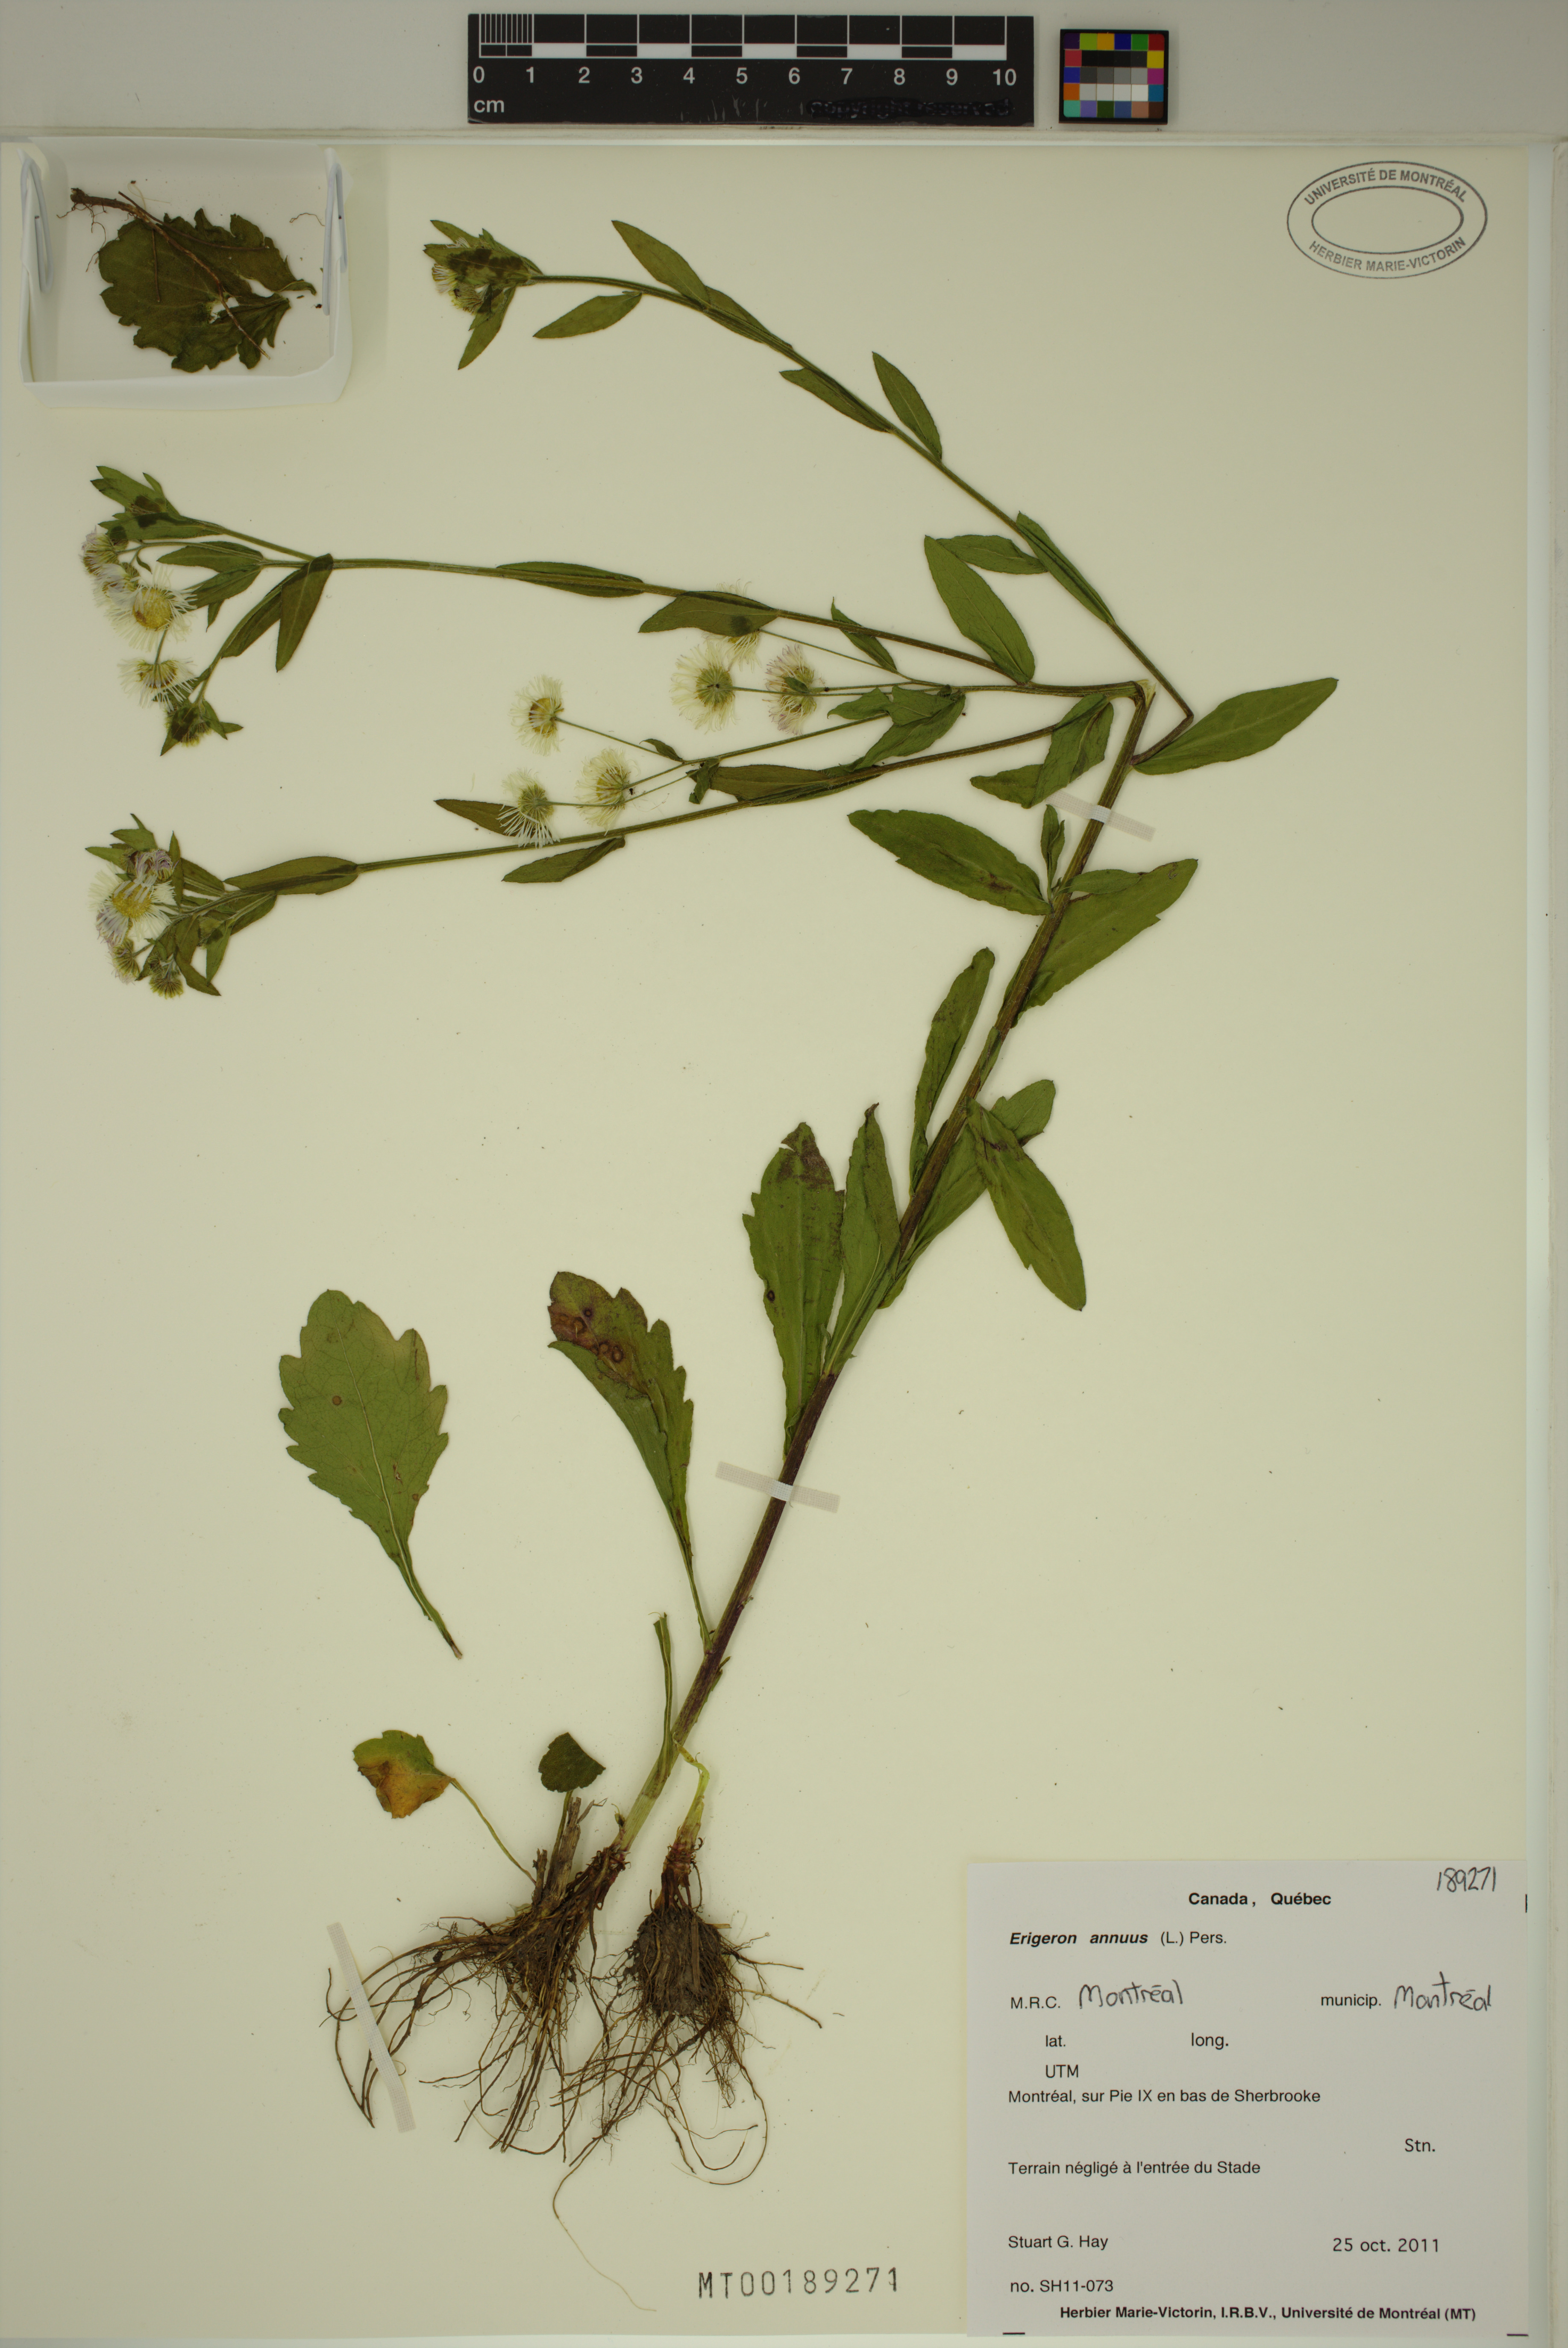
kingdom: Plantae
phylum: Tracheophyta
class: Magnoliopsida
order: Asterales
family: Asteraceae
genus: Erigeron
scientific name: Erigeron annuus
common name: Tall fleabane
